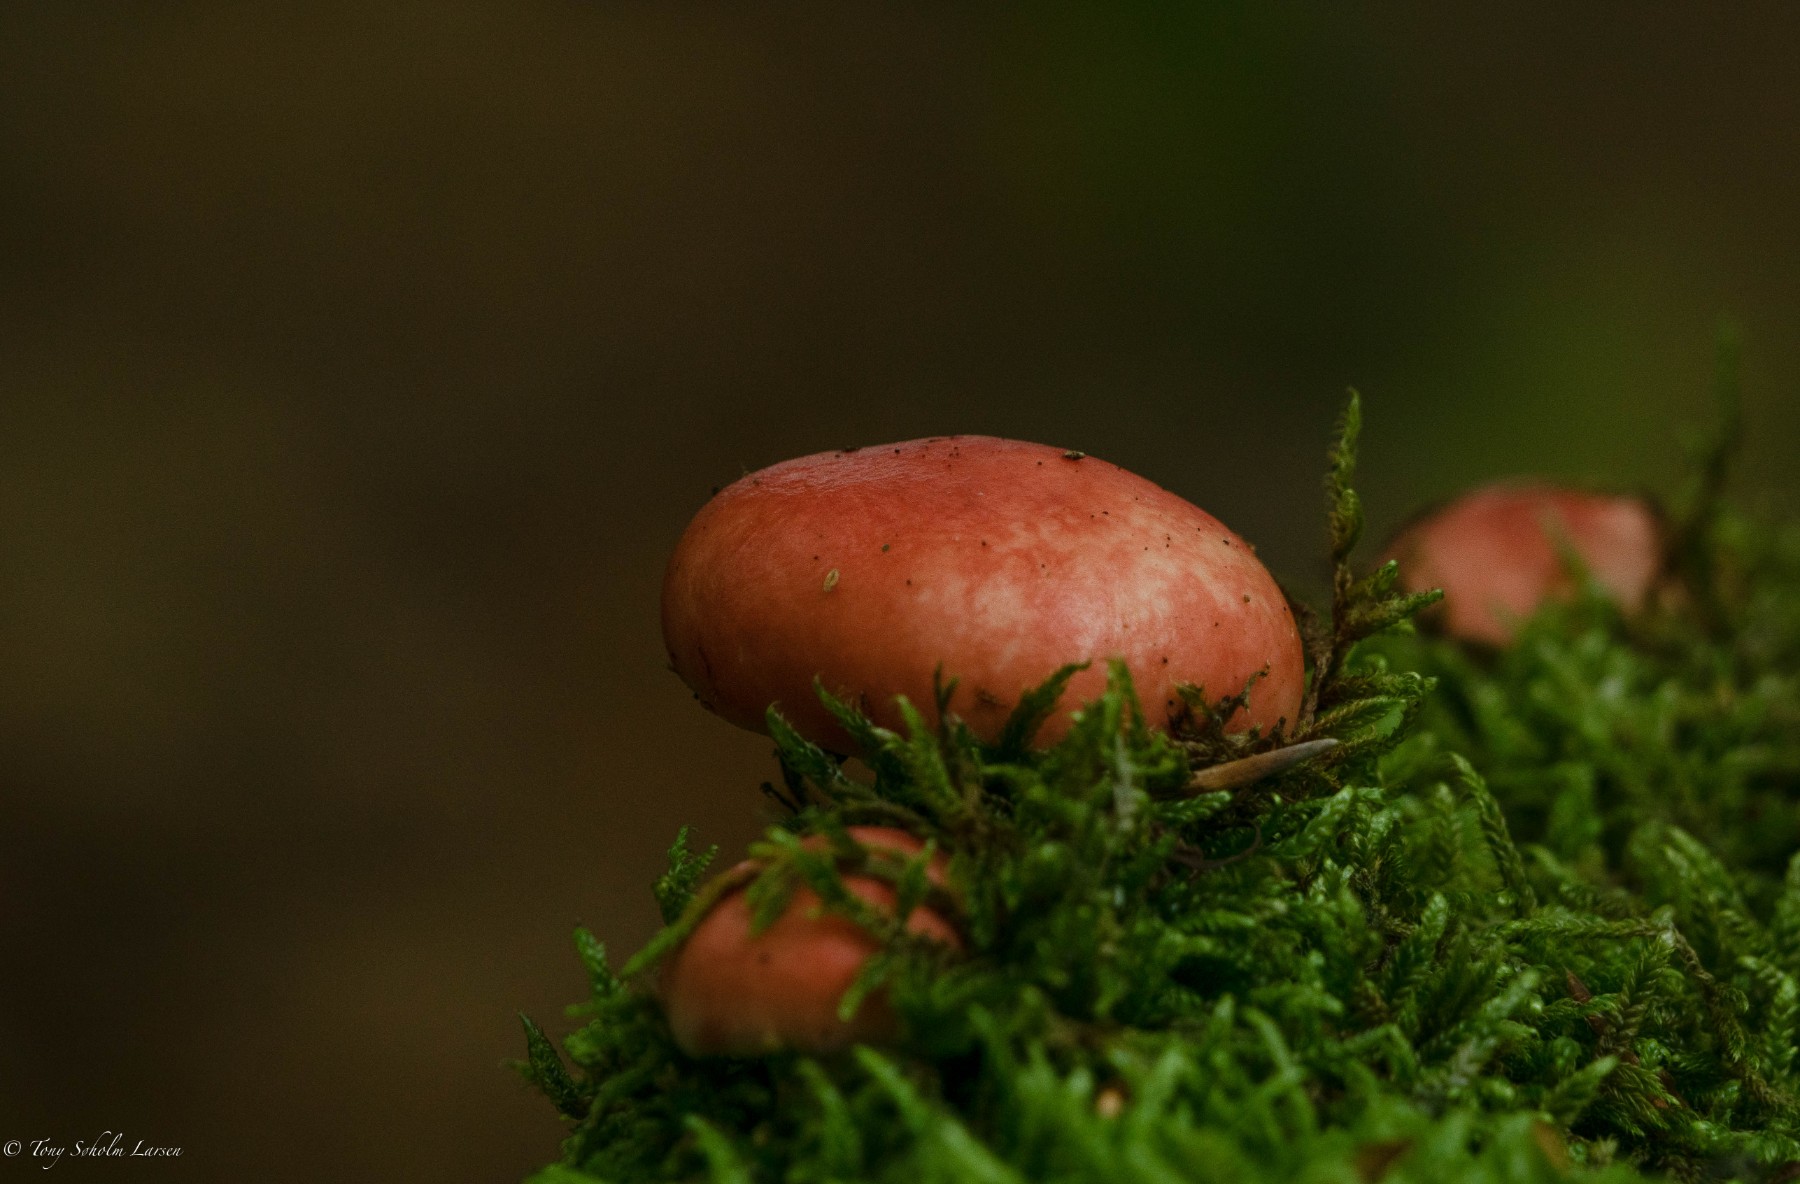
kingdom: Fungi
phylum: Basidiomycota
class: Agaricomycetes
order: Russulales
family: Russulaceae
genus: Russula
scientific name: Russula
